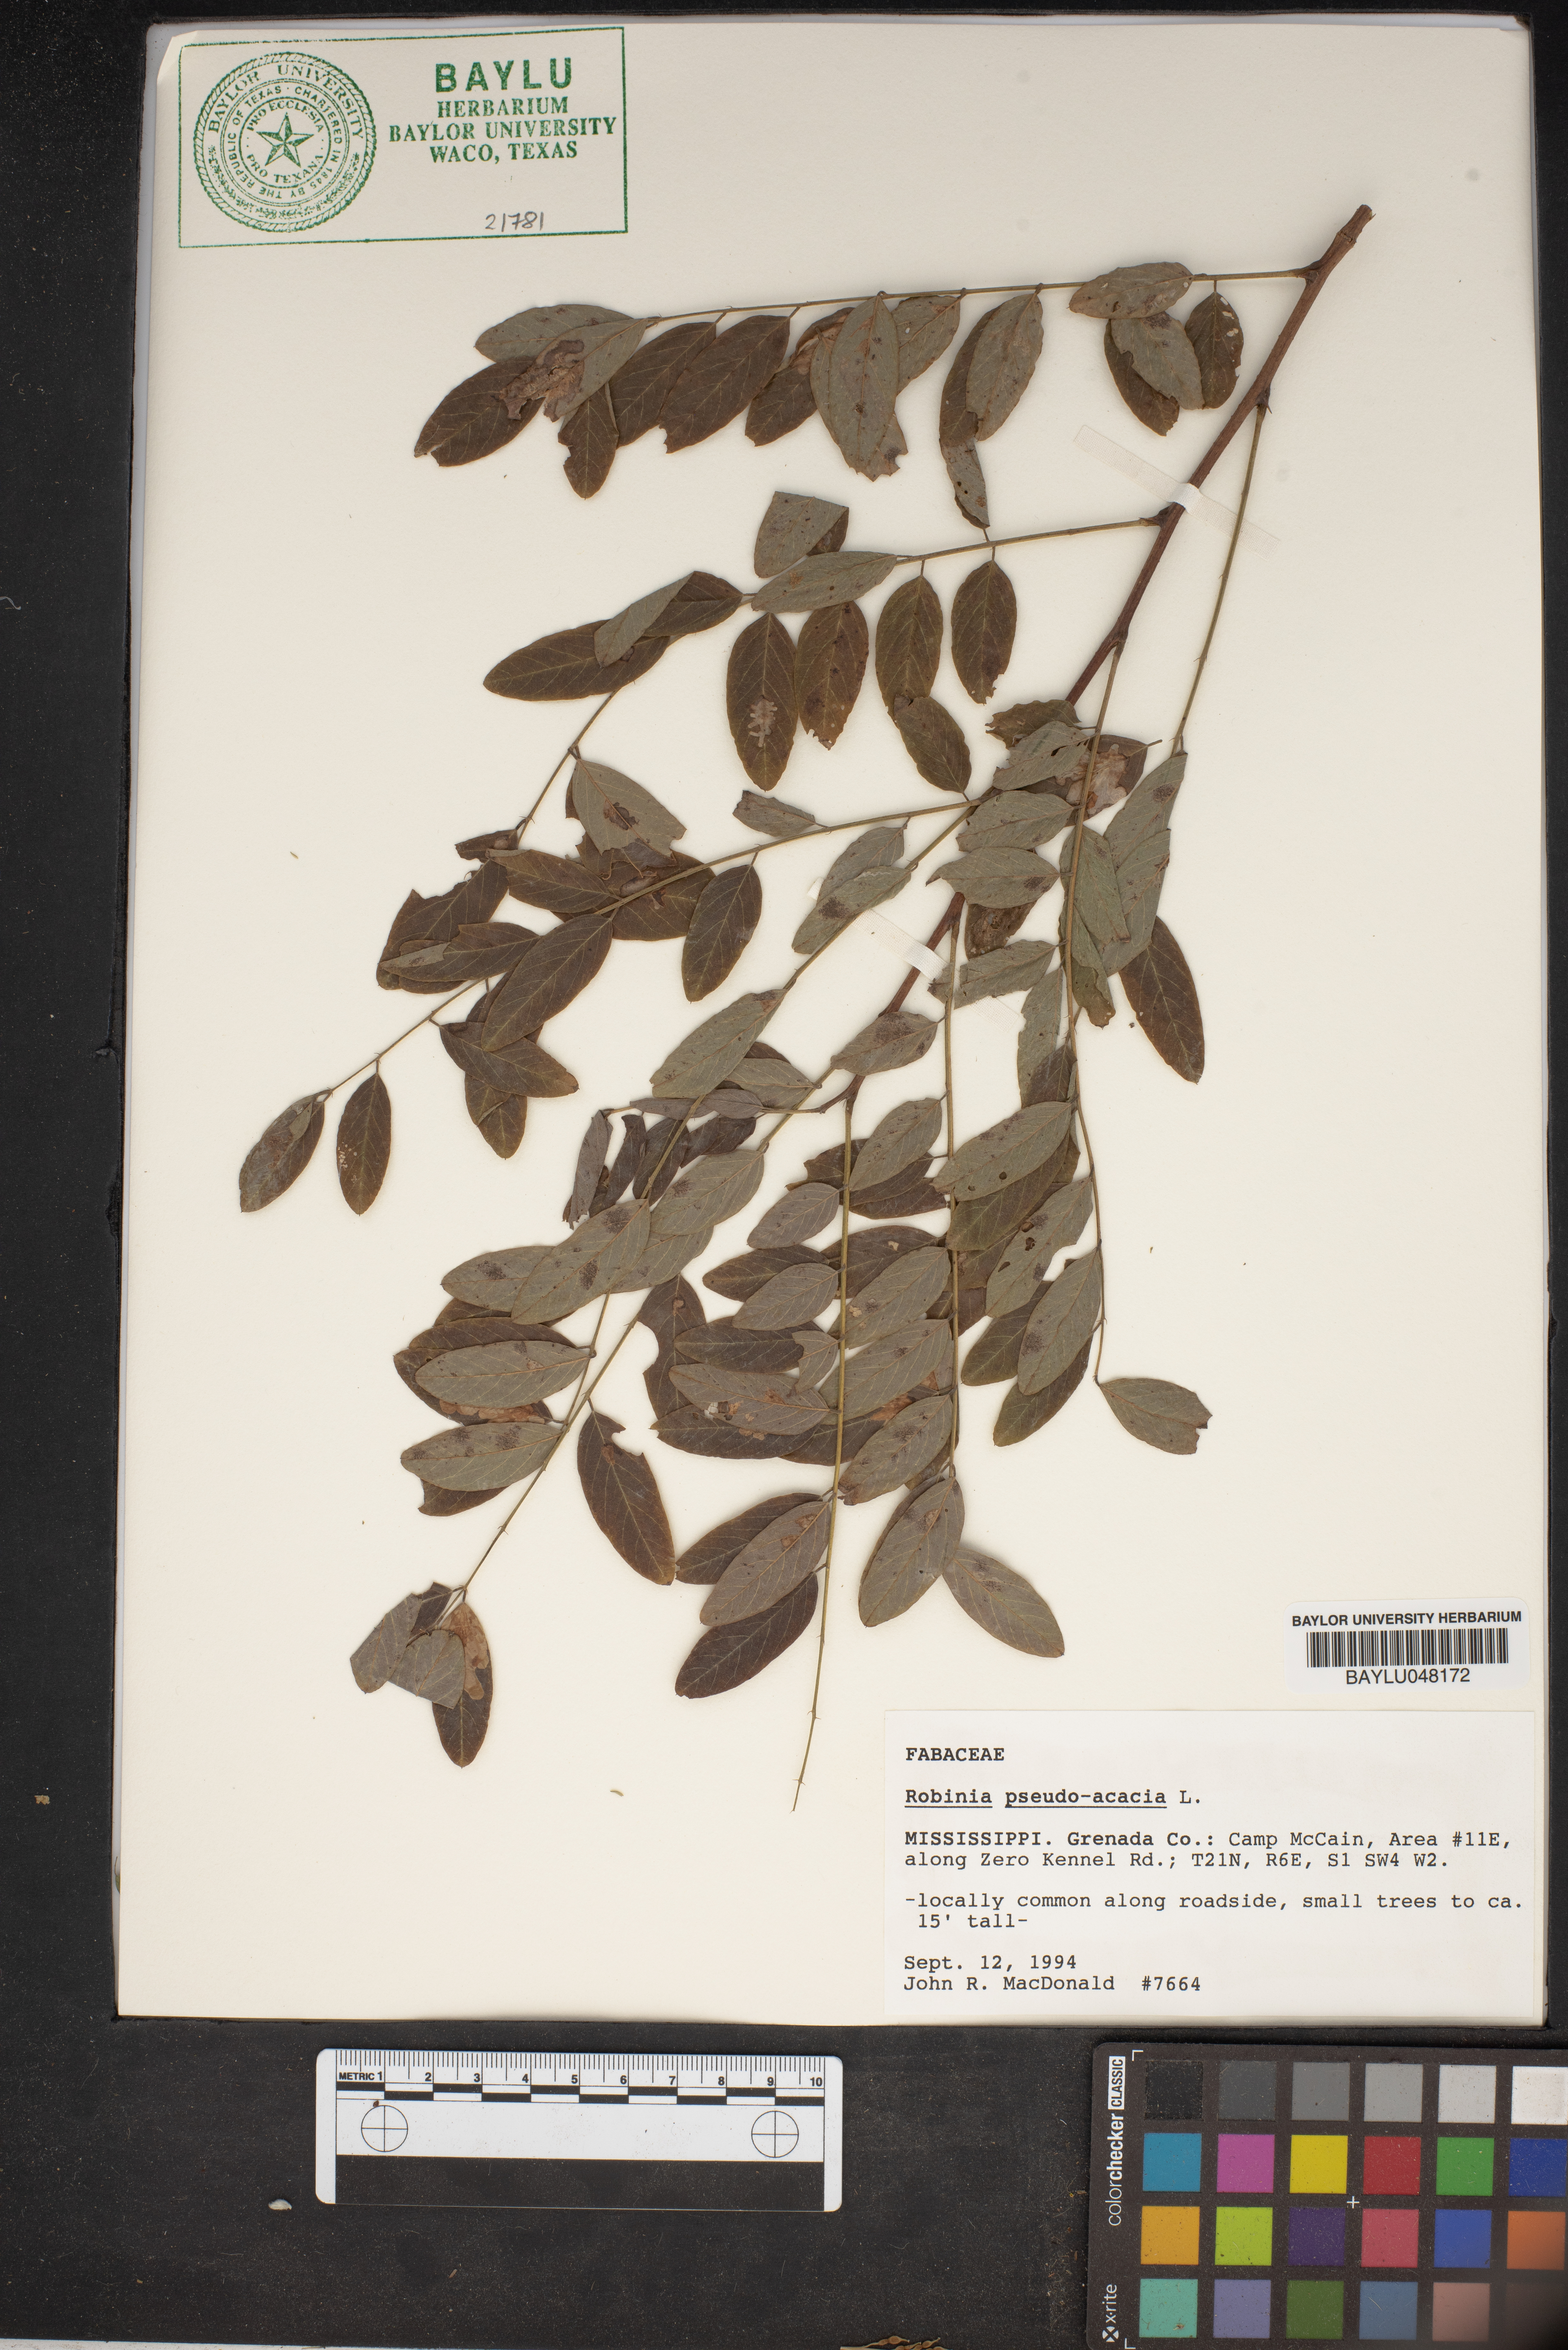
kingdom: Plantae
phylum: Tracheophyta
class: Magnoliopsida
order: Fabales
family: Fabaceae
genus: Robinia
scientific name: Robinia pseudoacacia
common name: Black locust
